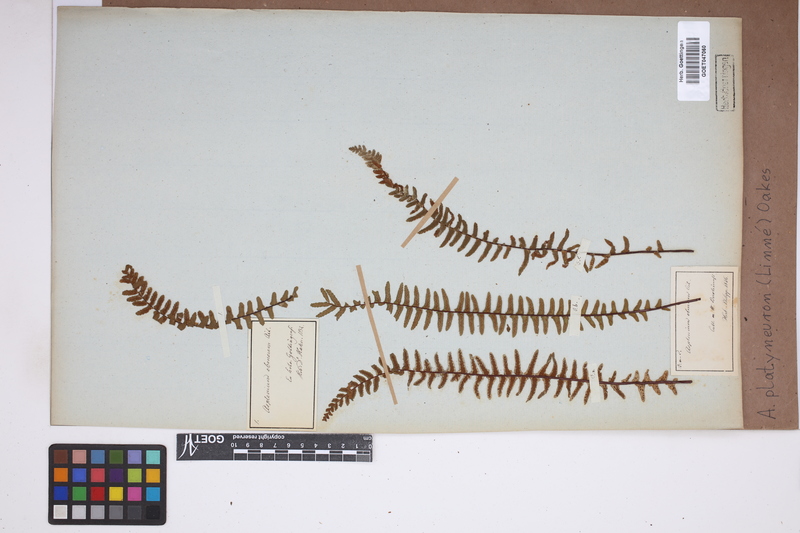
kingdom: Plantae
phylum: Tracheophyta
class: Polypodiopsida
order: Polypodiales
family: Aspleniaceae
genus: Asplenium
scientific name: Asplenium platyneuron
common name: Ebony spleenwort
